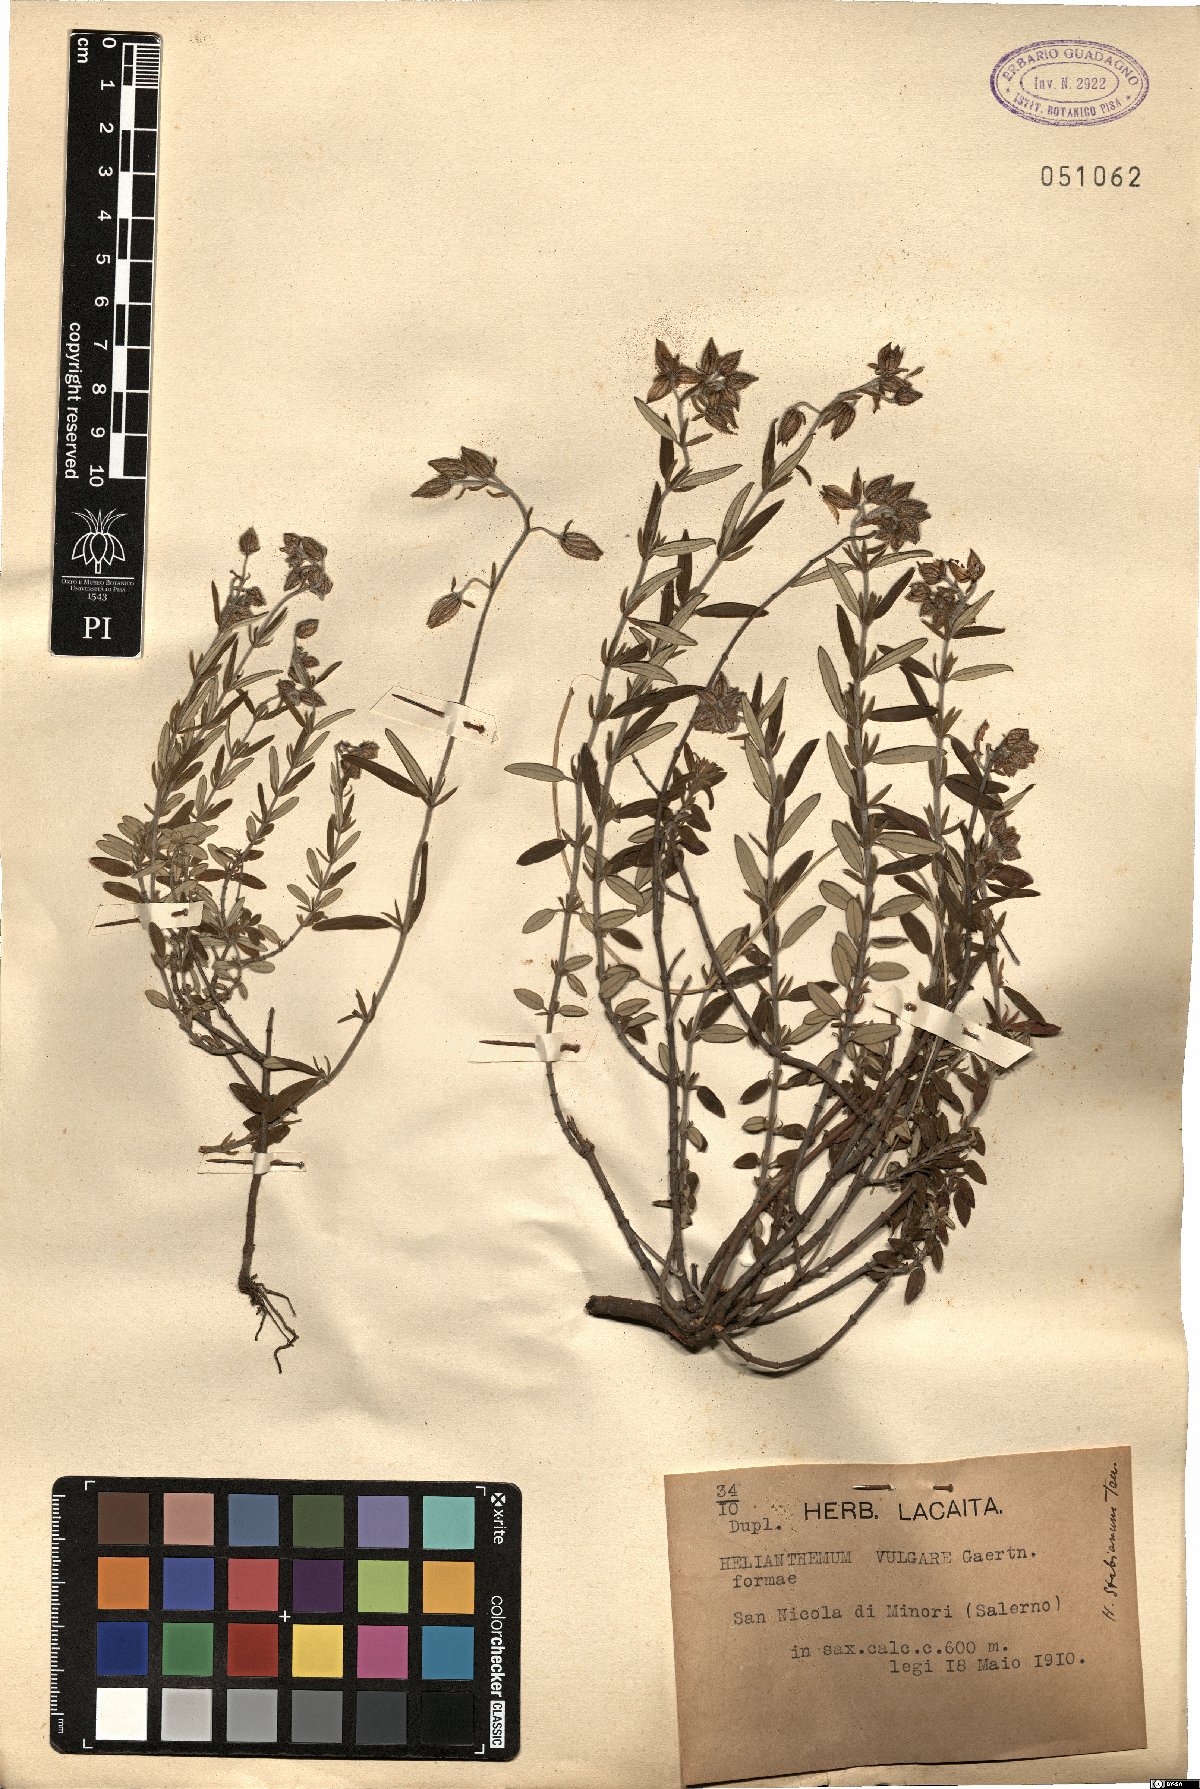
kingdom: Plantae
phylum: Tracheophyta
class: Magnoliopsida
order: Malvales
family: Cistaceae
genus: Helianthemum
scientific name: Helianthemum croceum
